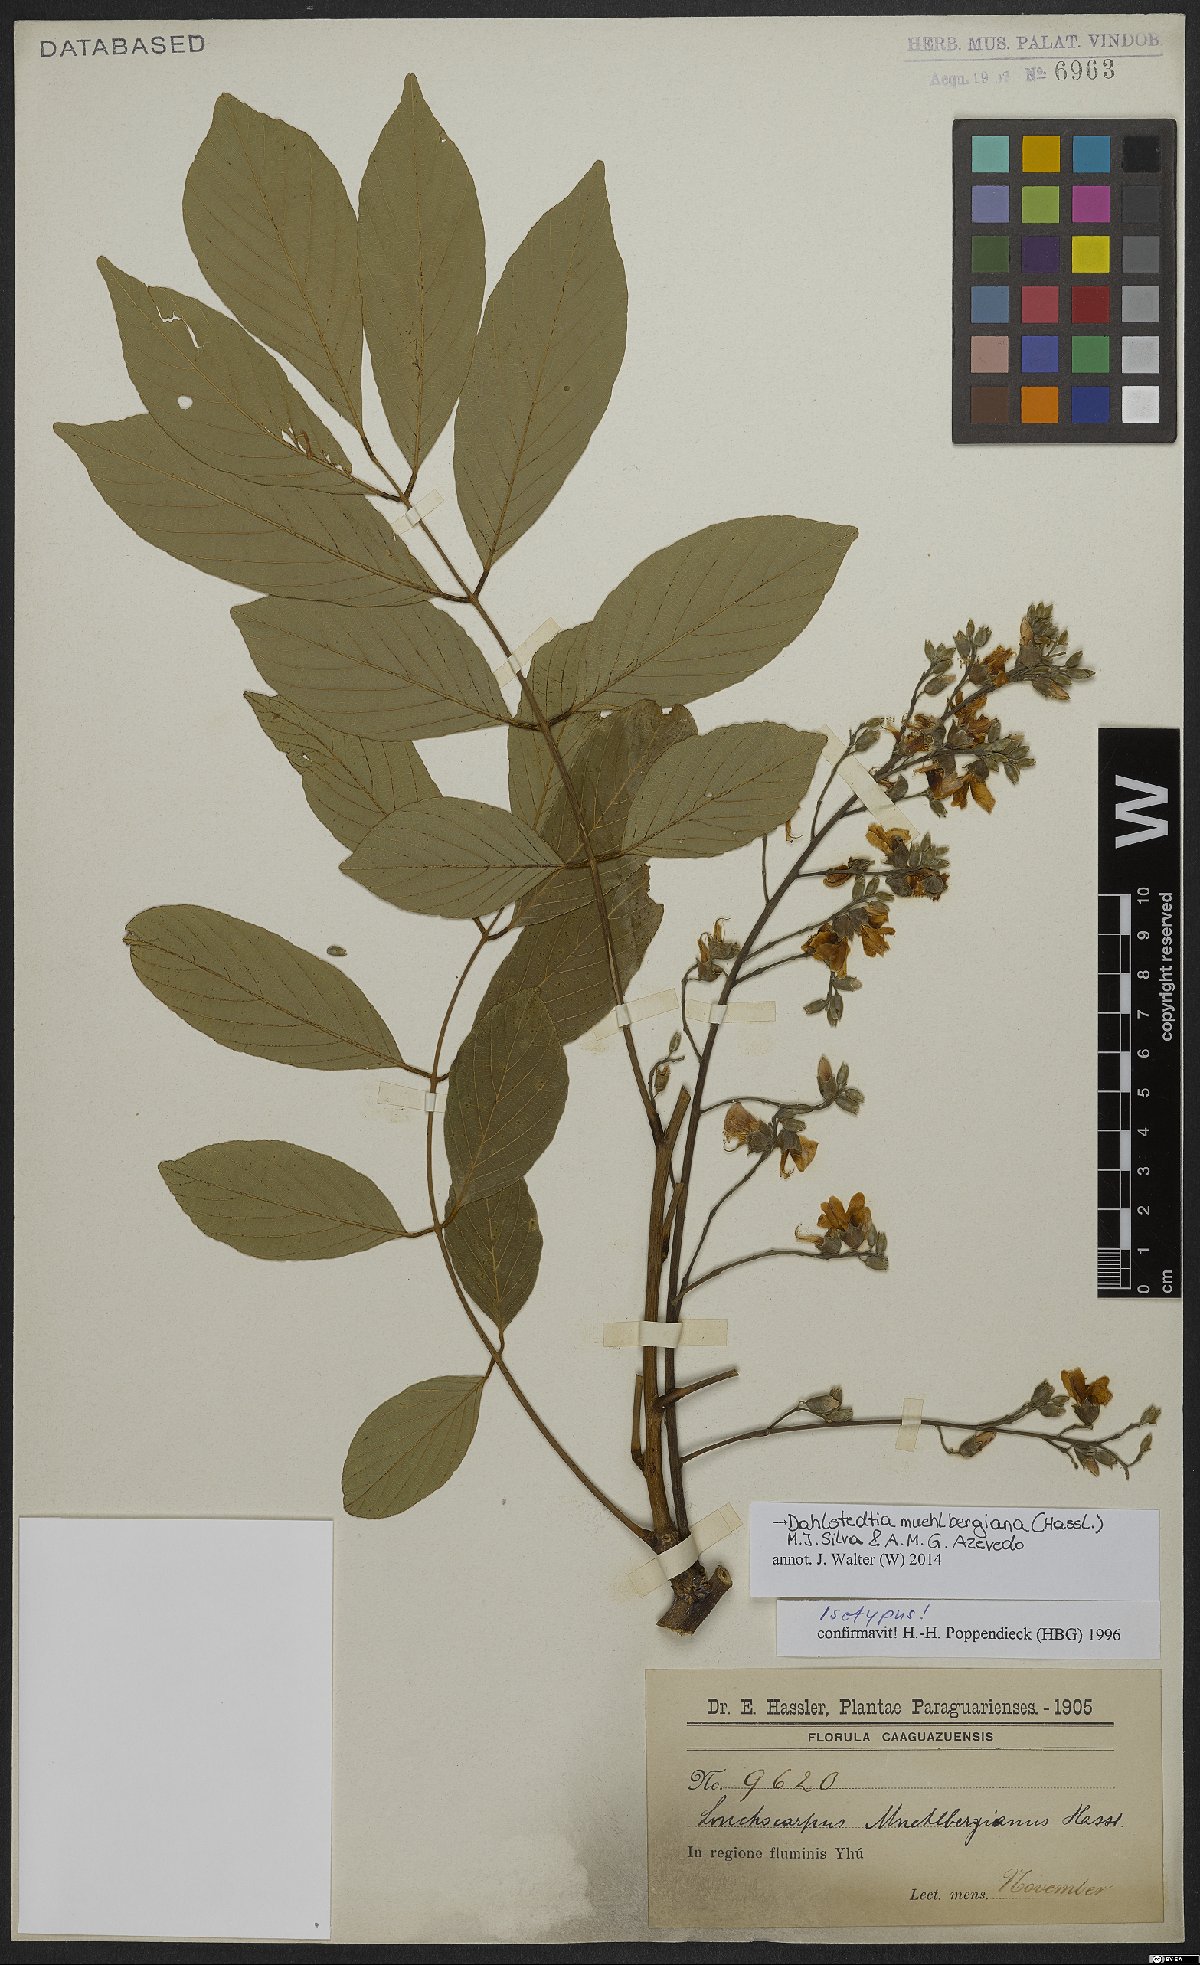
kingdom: Plantae
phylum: Tracheophyta
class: Magnoliopsida
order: Fabales
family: Fabaceae
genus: Dahlstedtia
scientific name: Dahlstedtia muehlbergiana
